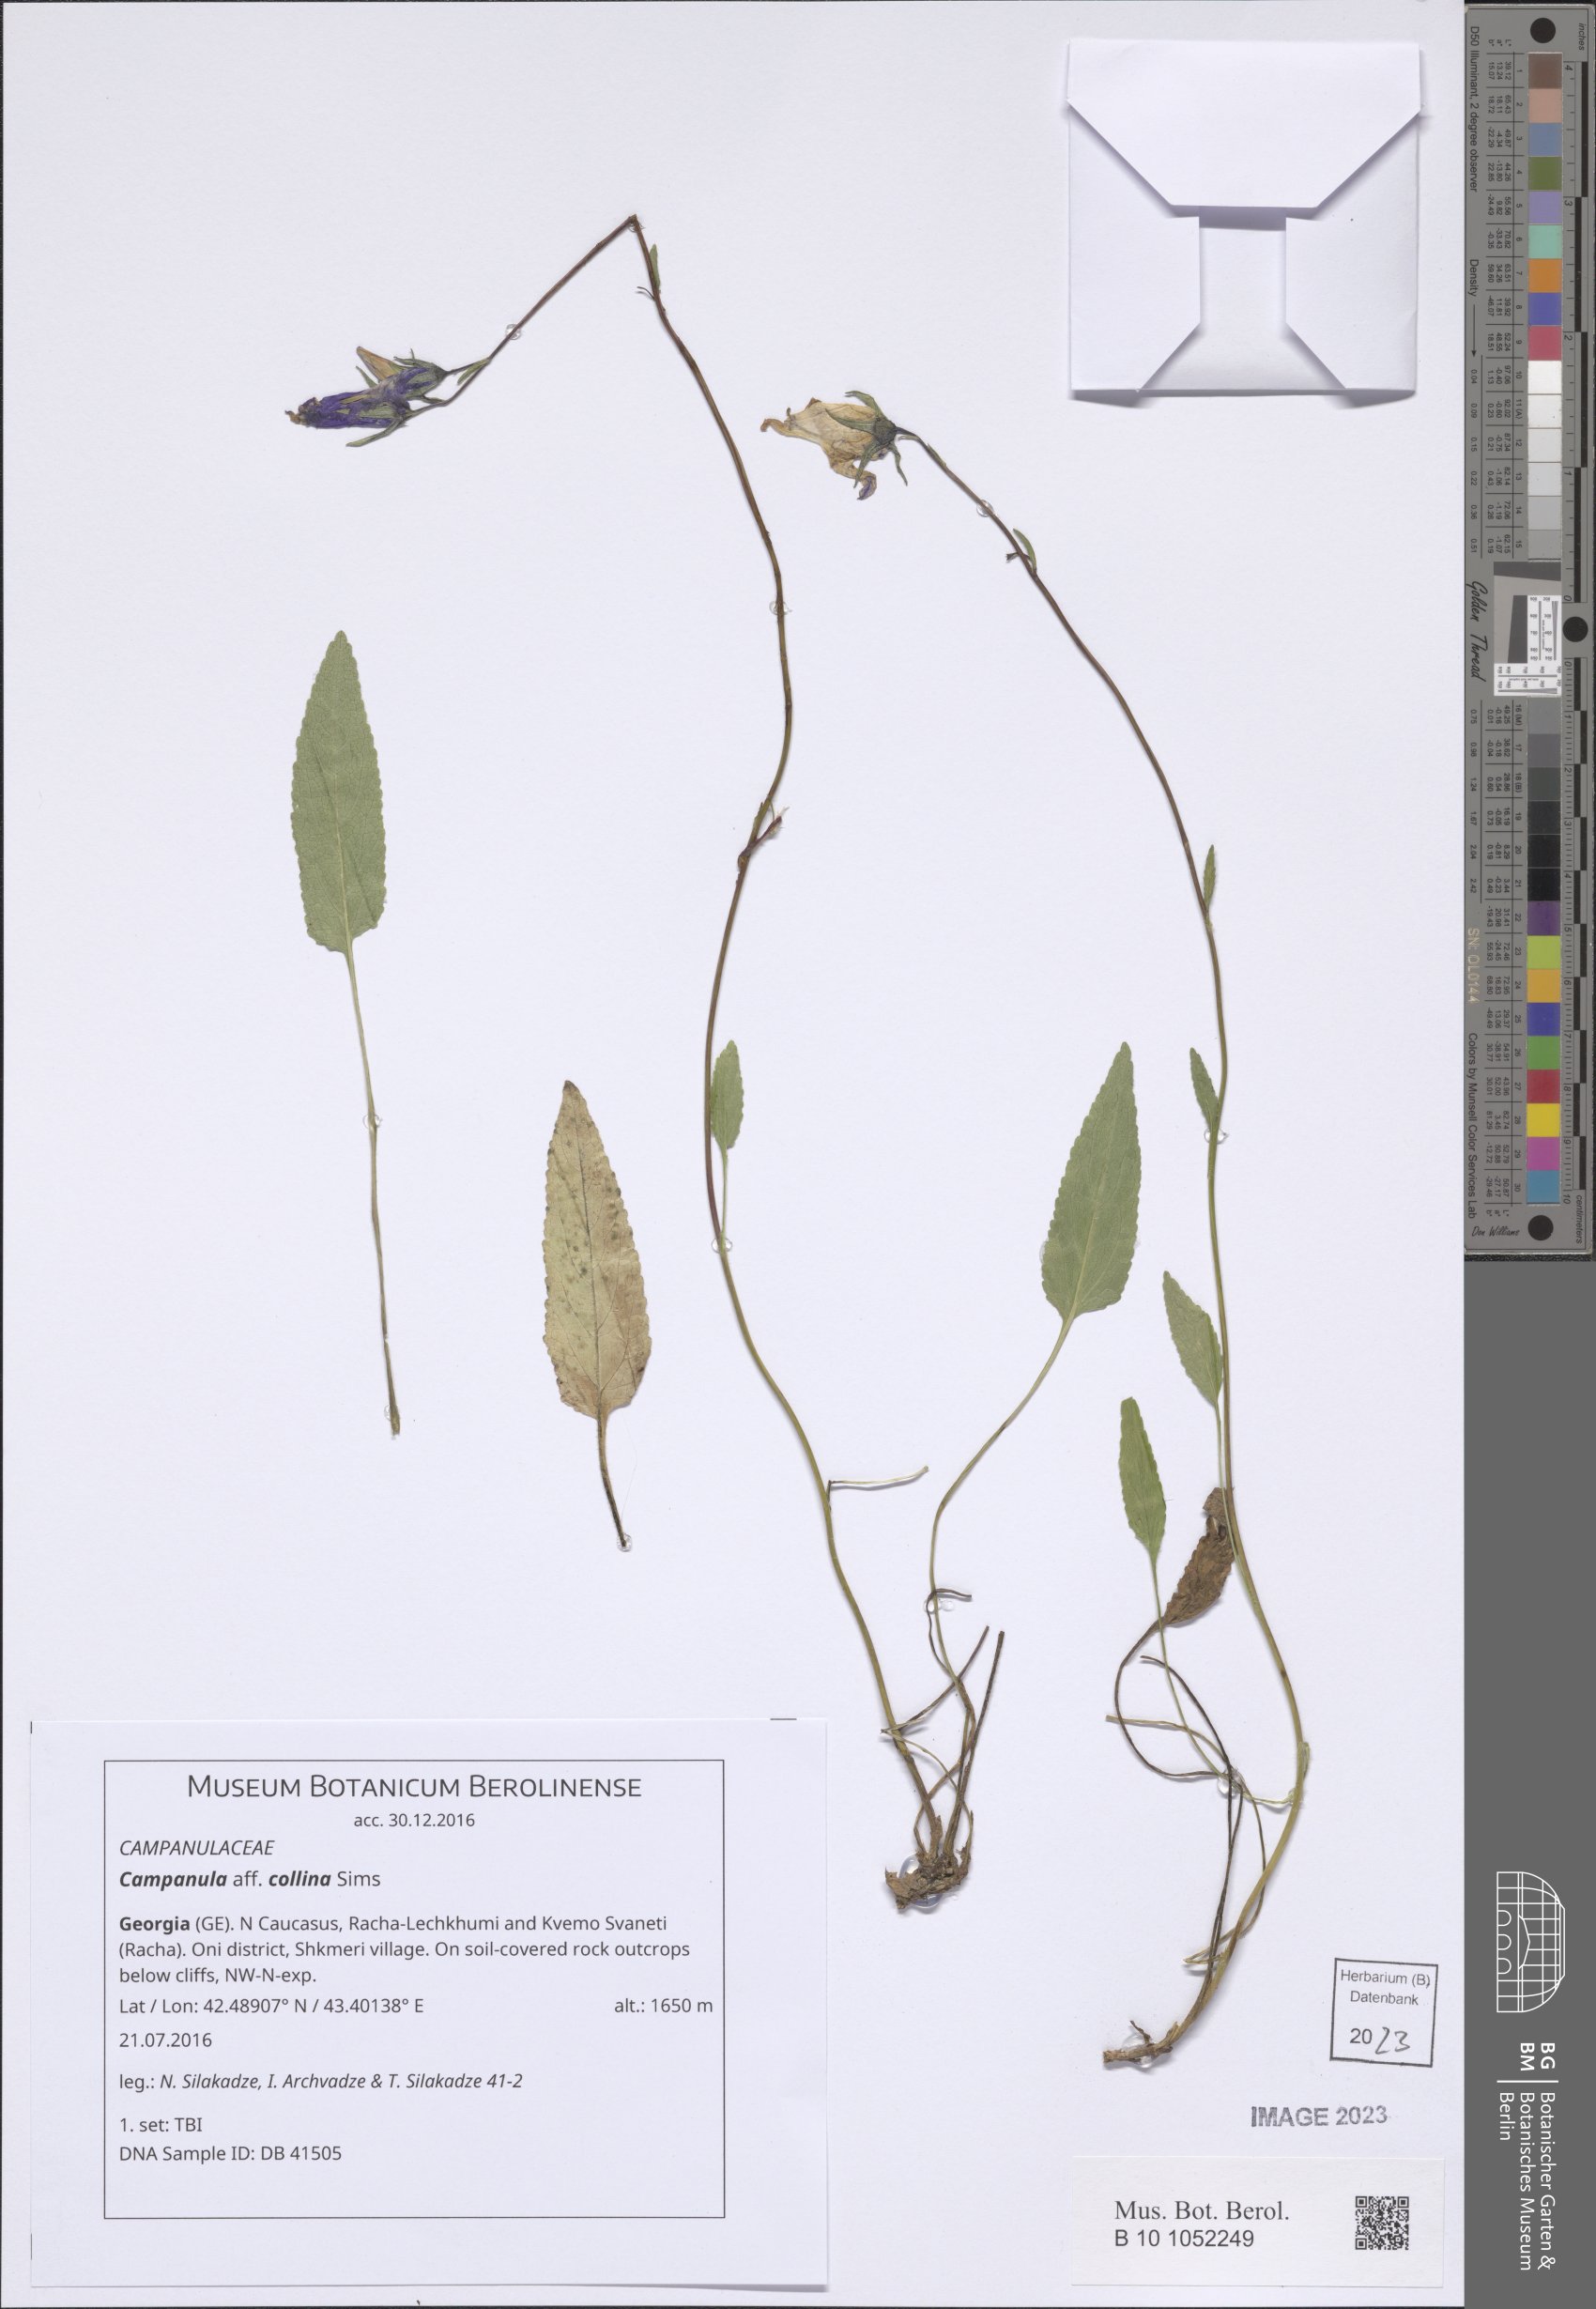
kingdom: Plantae
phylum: Tracheophyta
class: Magnoliopsida
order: Asterales
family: Campanulaceae
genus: Campanula
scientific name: Campanula collina
